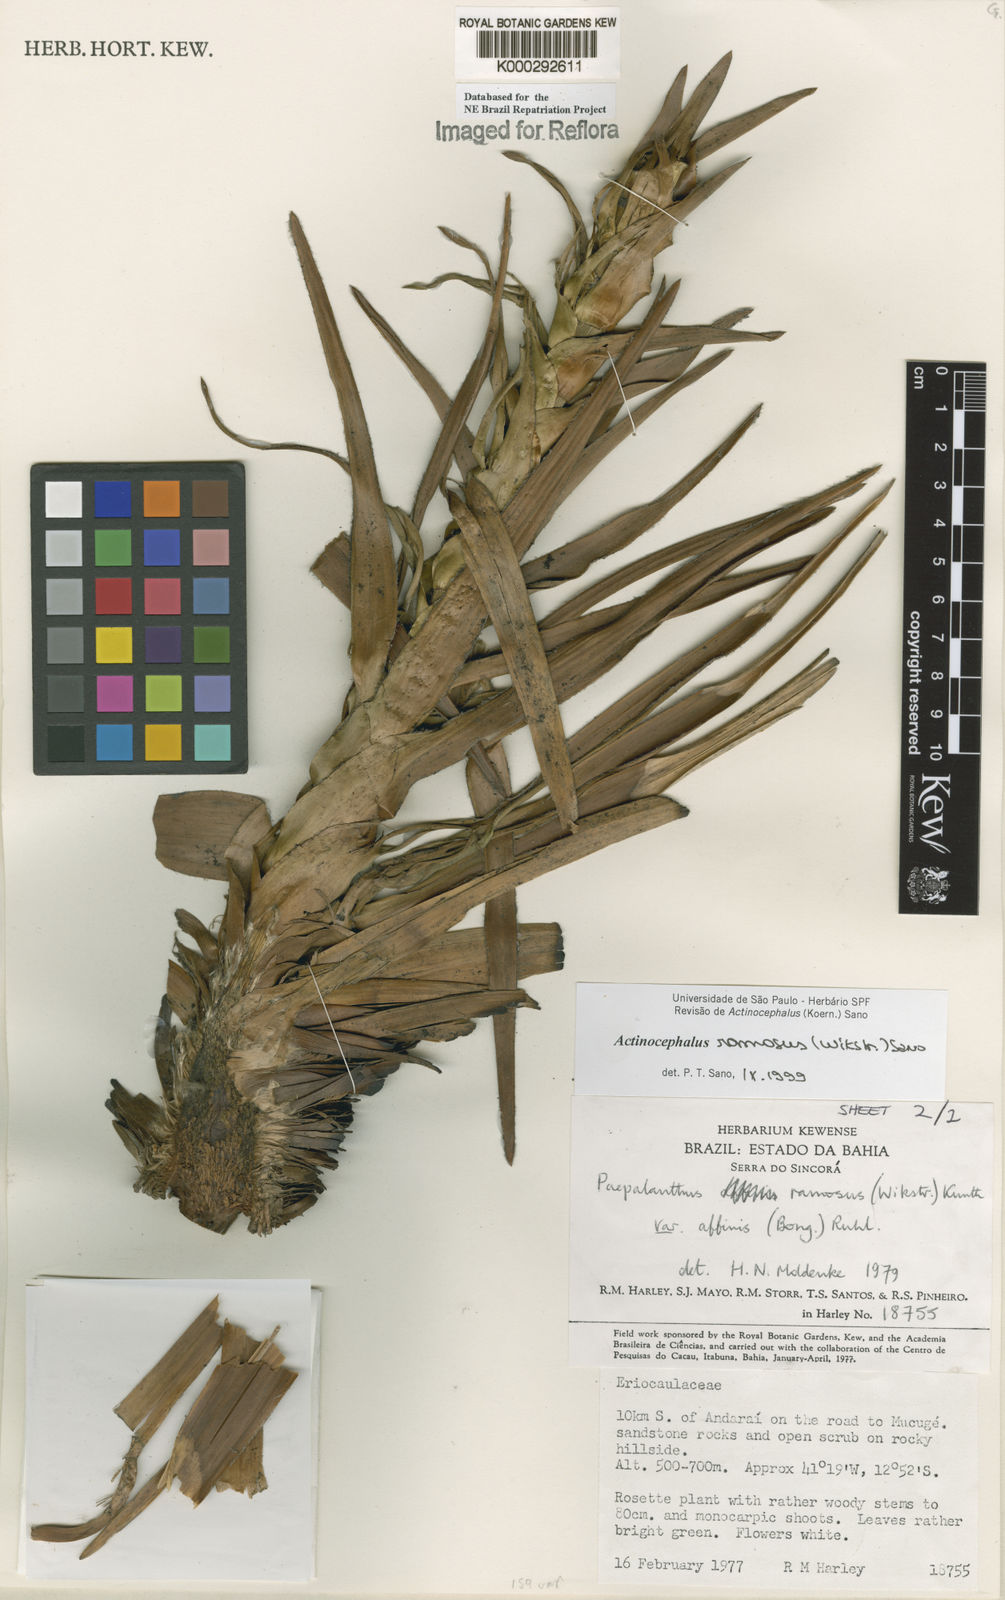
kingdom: Plantae
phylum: Tracheophyta
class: Liliopsida
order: Poales
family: Eriocaulaceae
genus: Paepalanthus
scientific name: Paepalanthus ramosus
